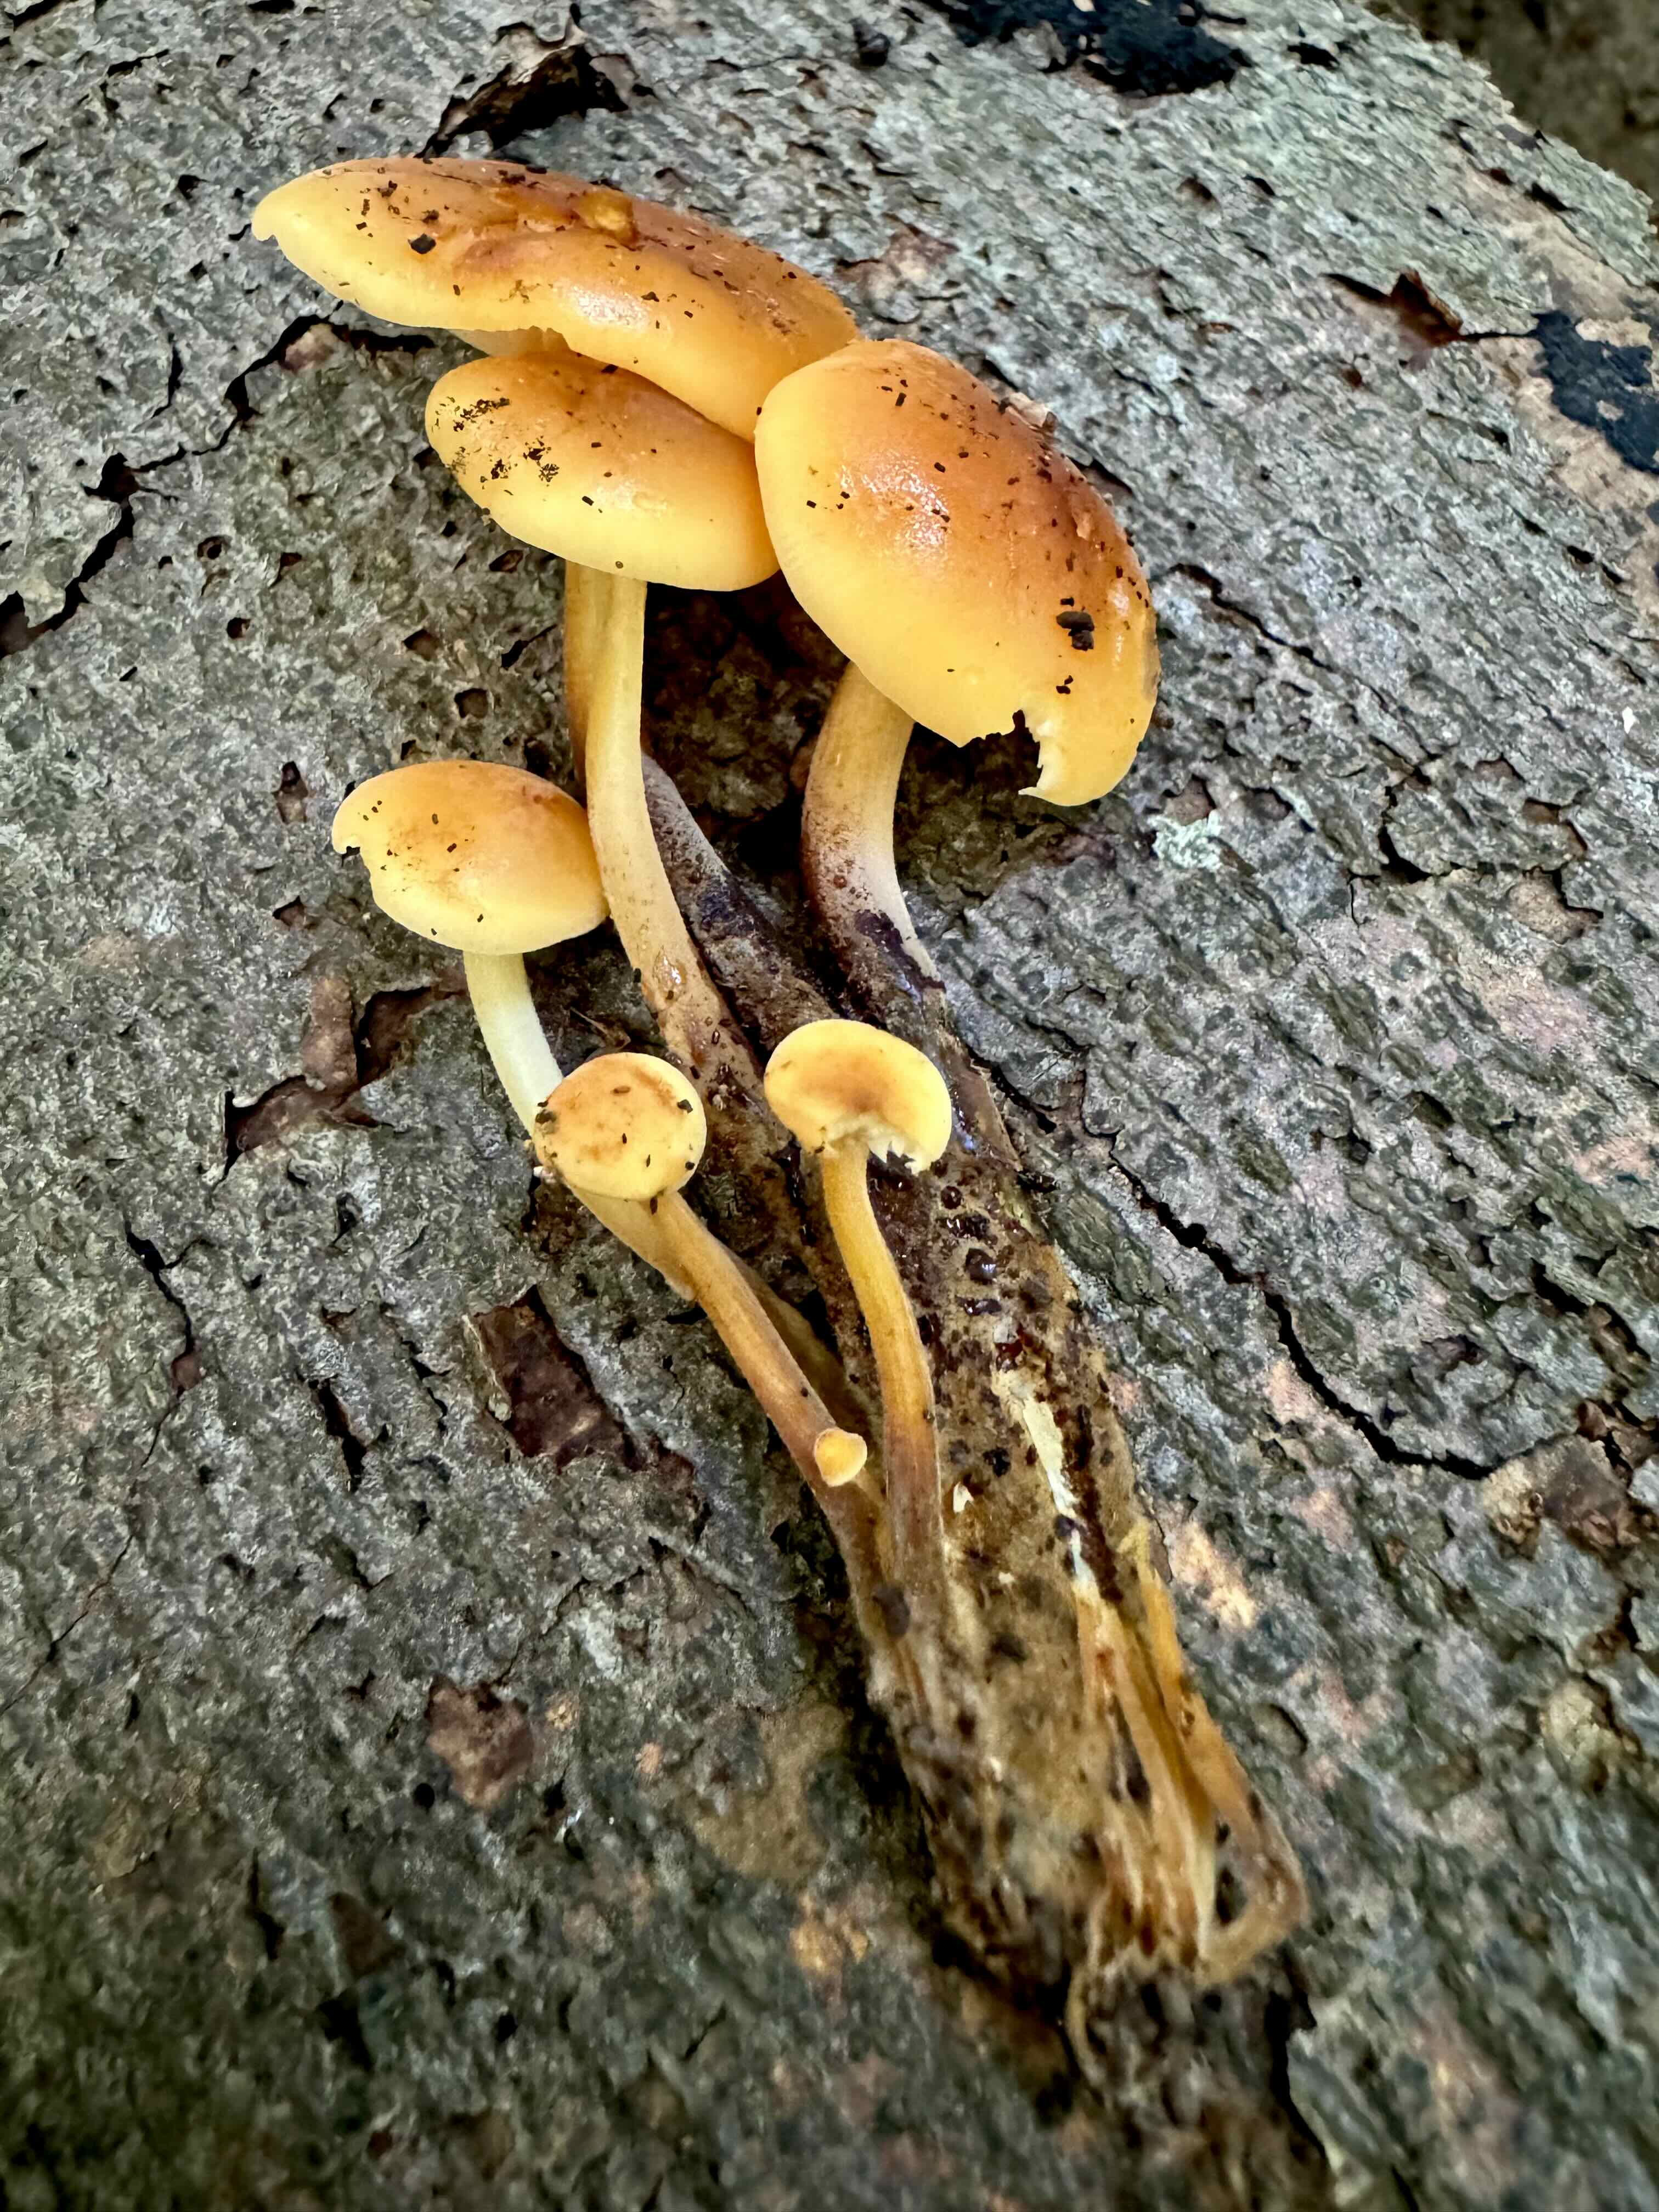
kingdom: Fungi
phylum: Basidiomycota
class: Agaricomycetes
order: Agaricales
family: Physalacriaceae
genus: Flammulina
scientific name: Flammulina velutipes
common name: gul fløjlsfod
